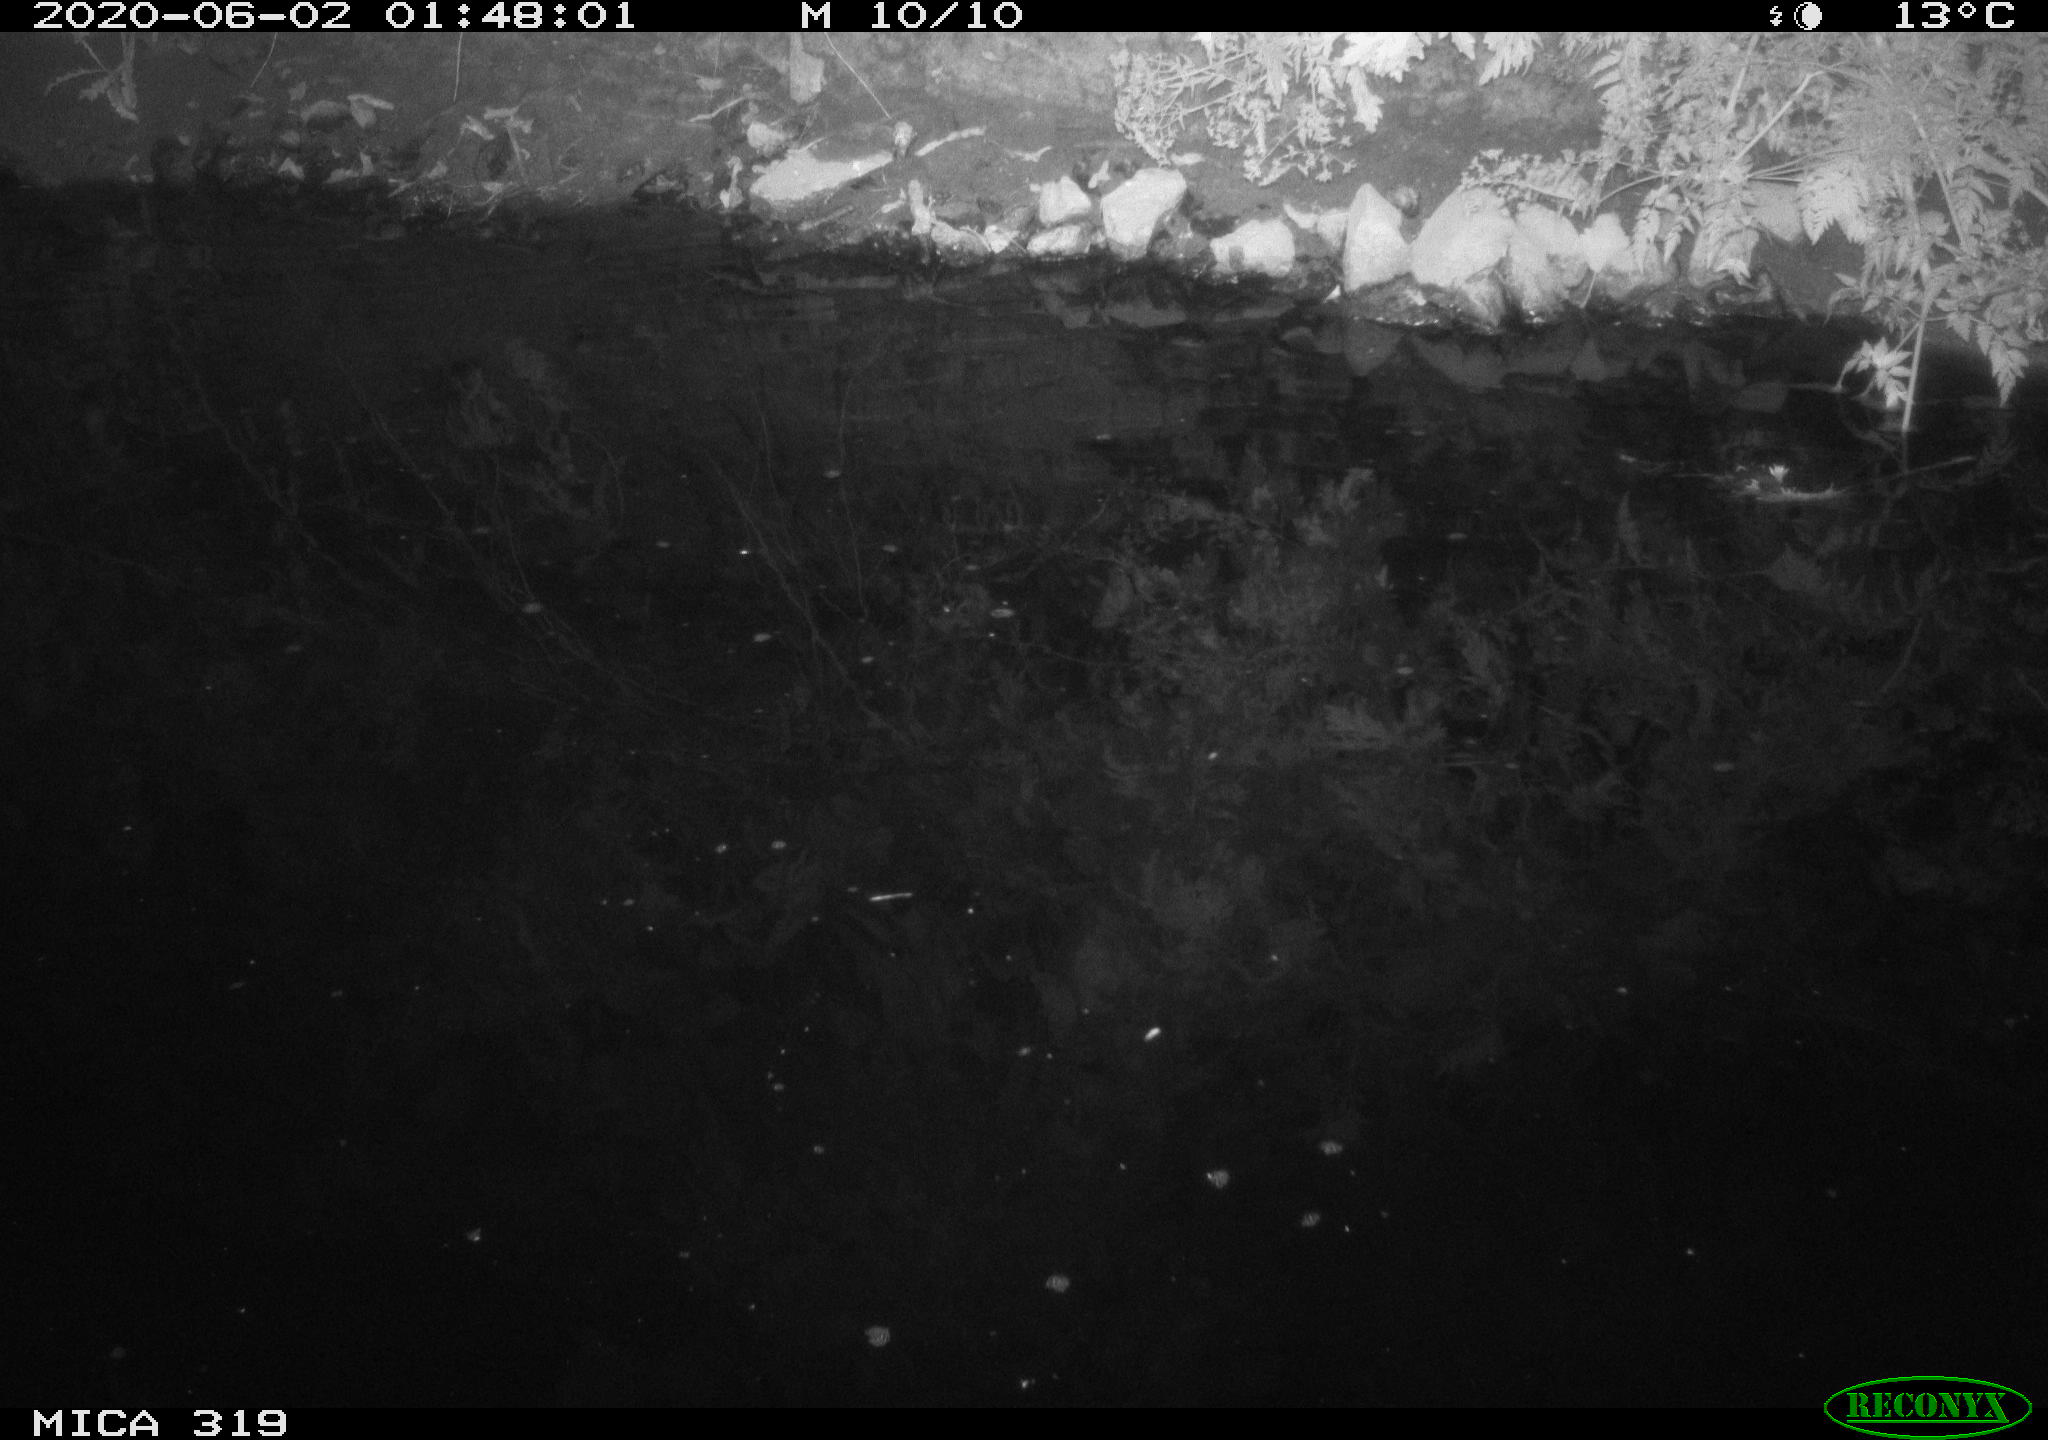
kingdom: Animalia
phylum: Chordata
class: Aves
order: Anseriformes
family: Anatidae
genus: Anas
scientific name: Anas platyrhynchos
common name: Mallard
